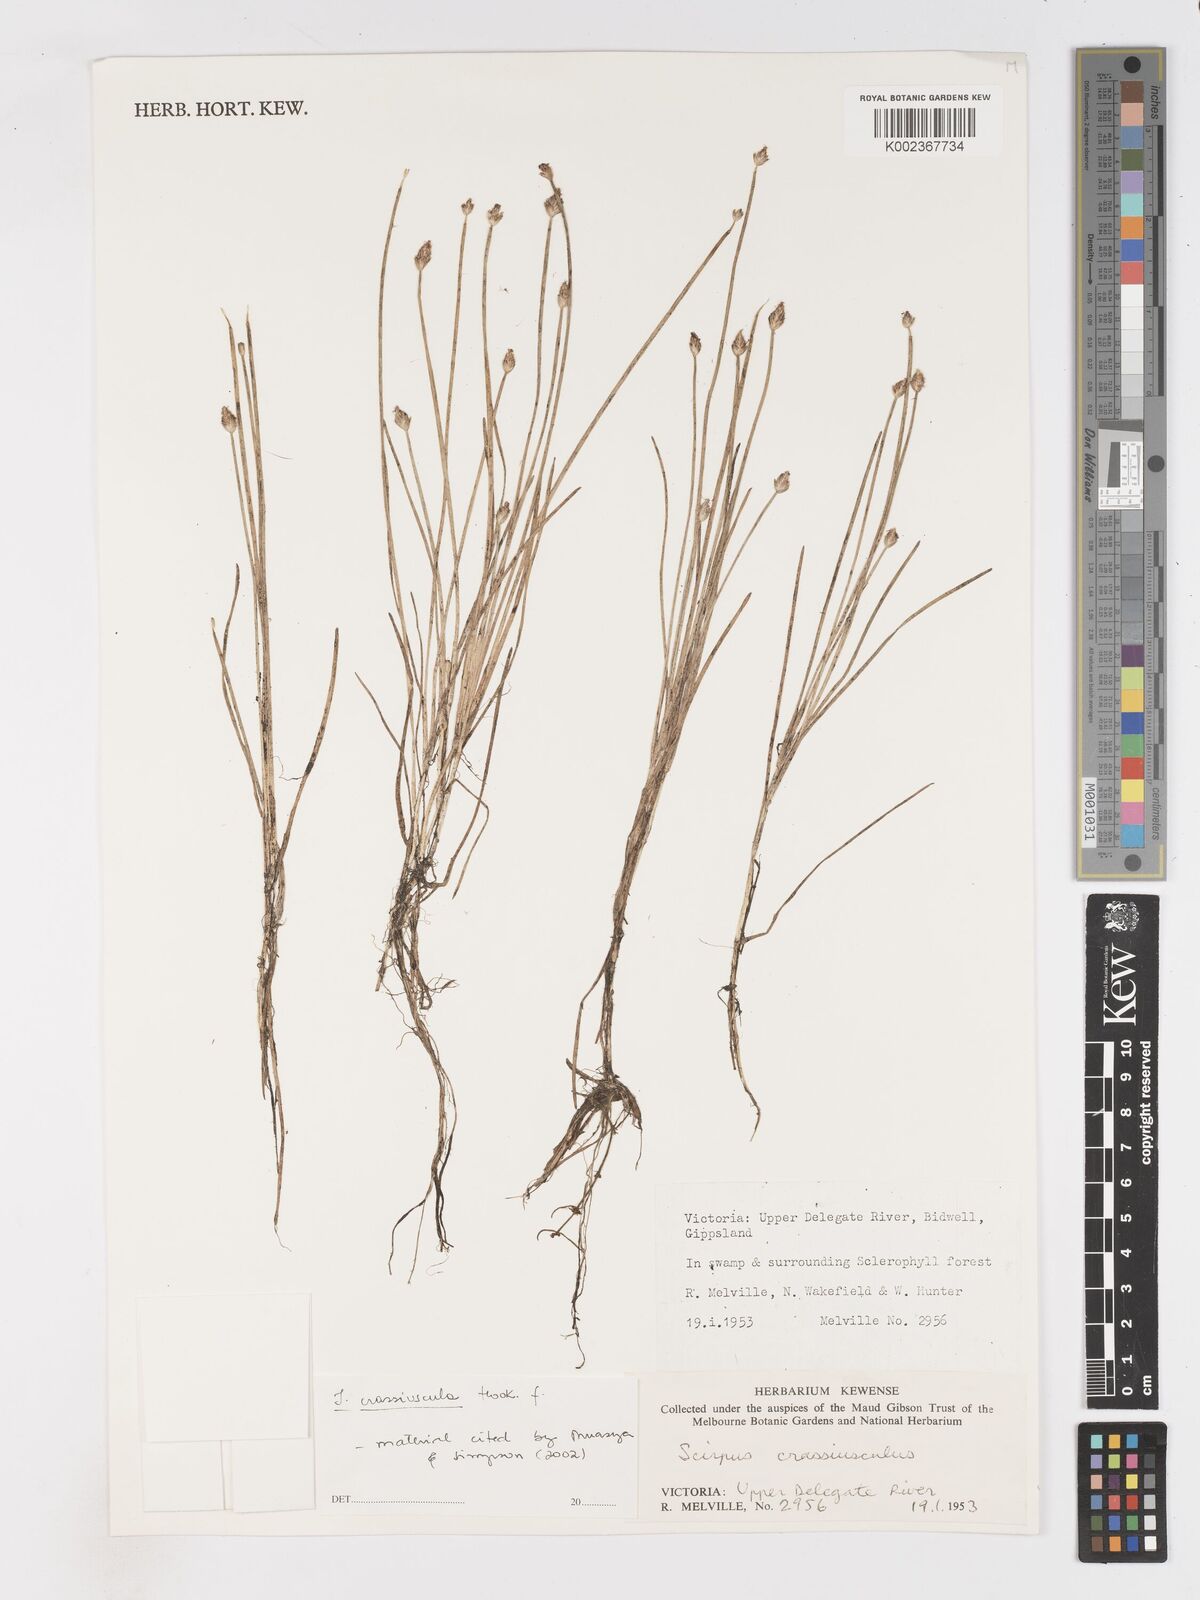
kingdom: Plantae
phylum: Tracheophyta
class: Liliopsida
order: Poales
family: Cyperaceae
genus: Isolepis
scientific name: Isolepis crassiuscula
